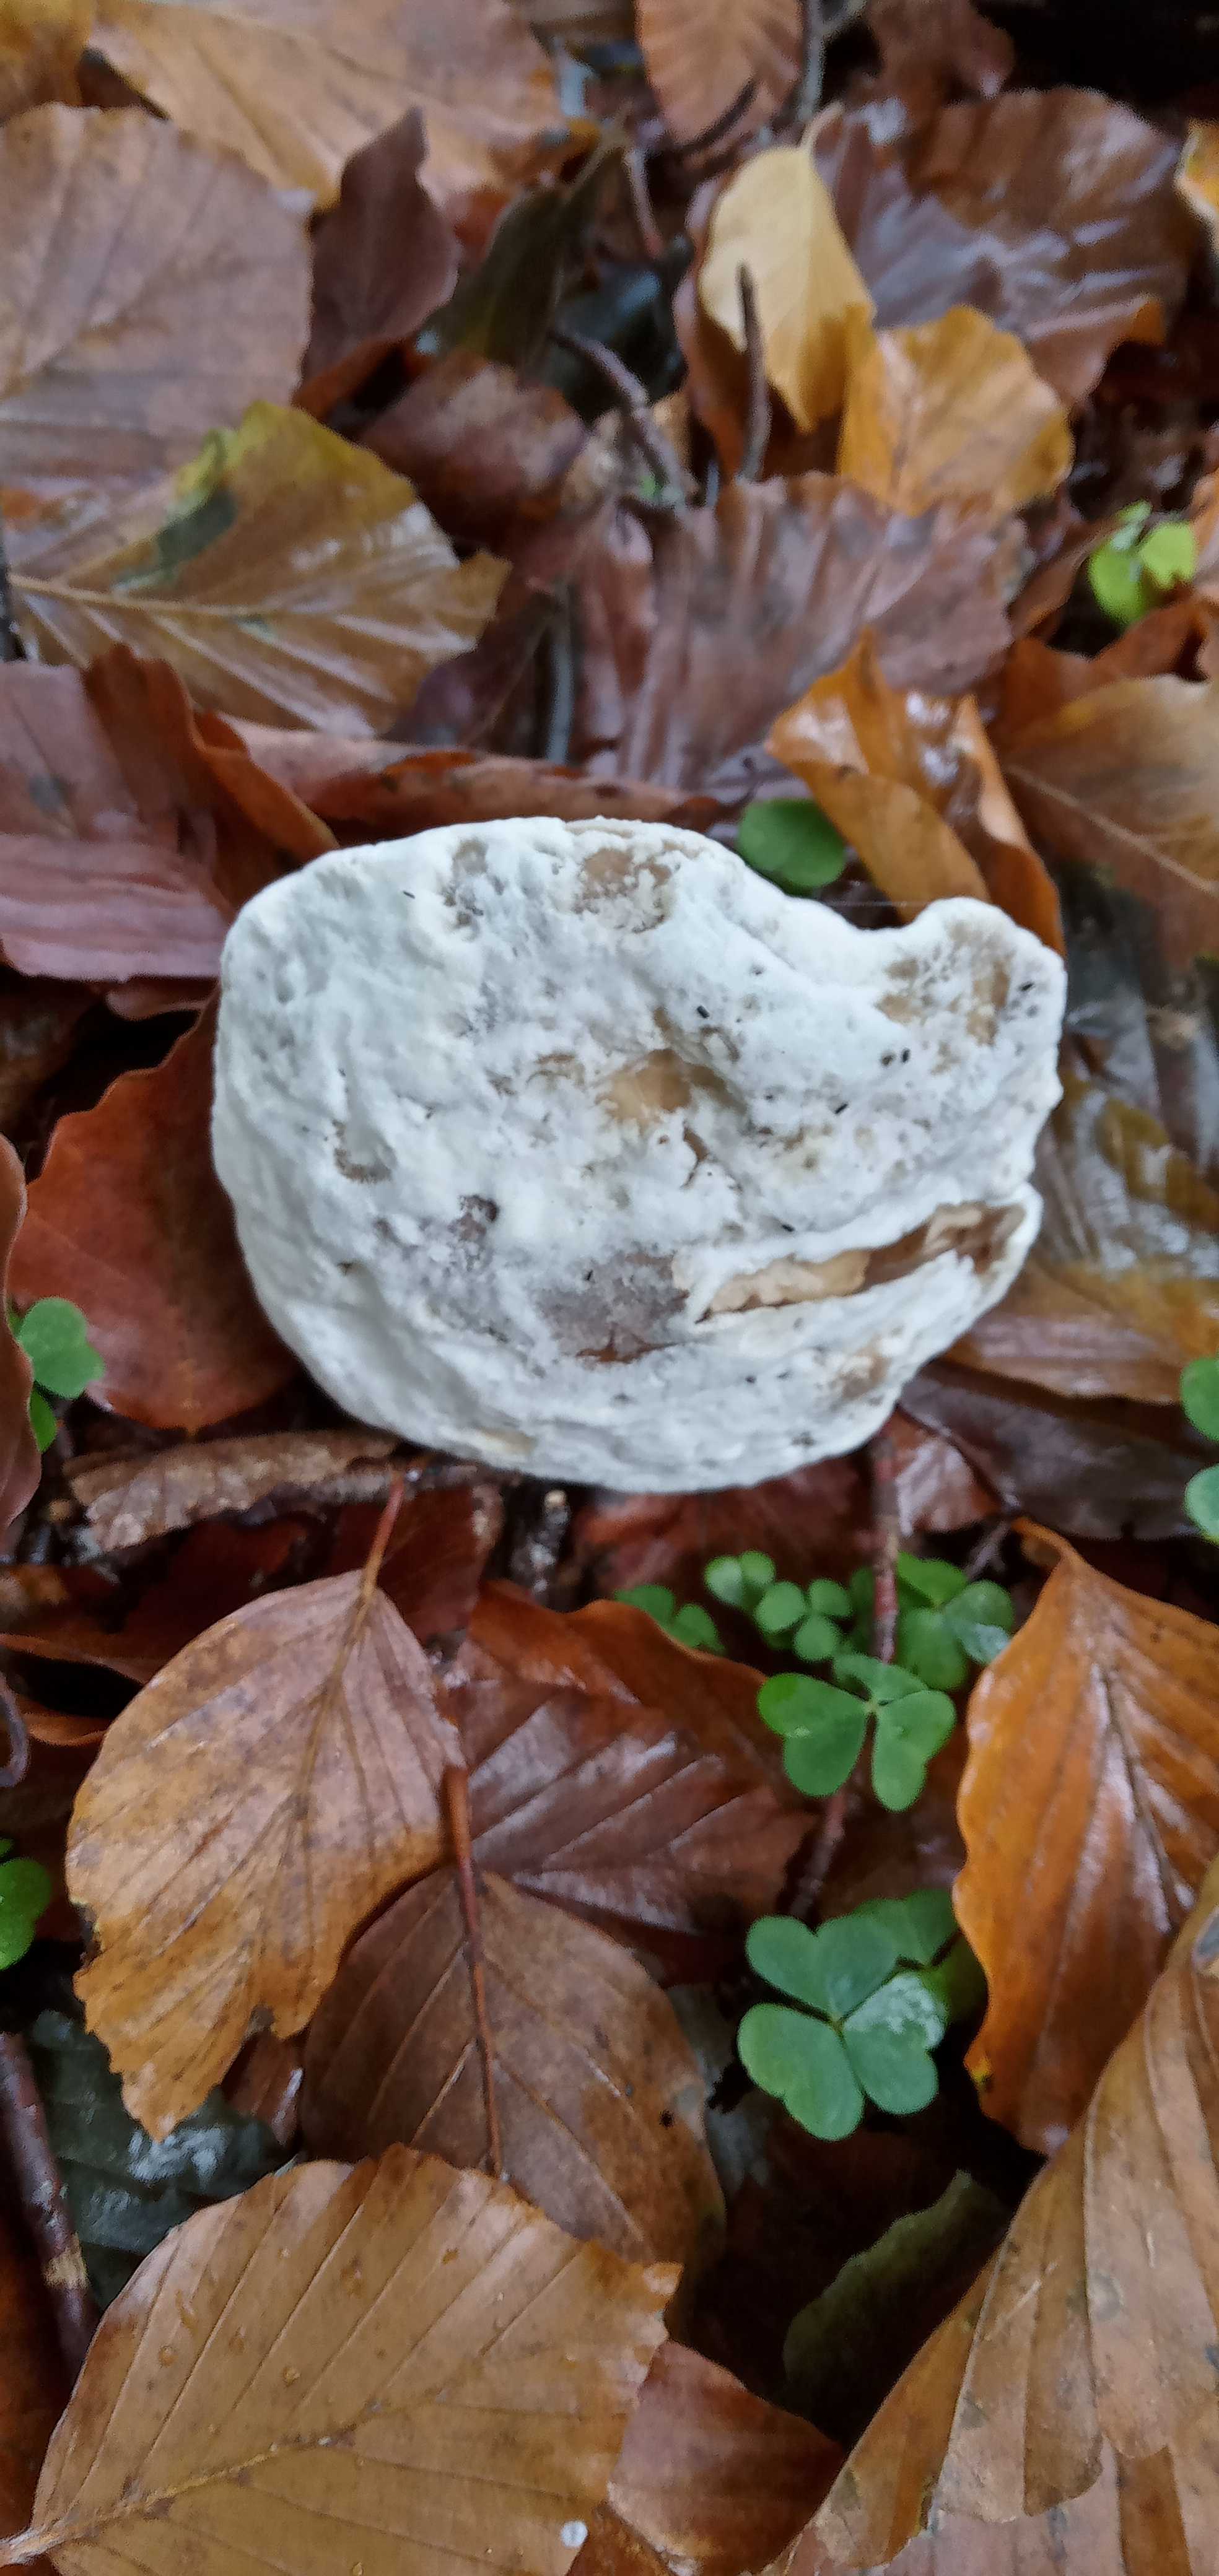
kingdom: Fungi
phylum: Ascomycota
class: Sordariomycetes
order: Hypocreales
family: Hypocreaceae
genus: Hypomyces
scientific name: Hypomyces
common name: snylteskorpe
